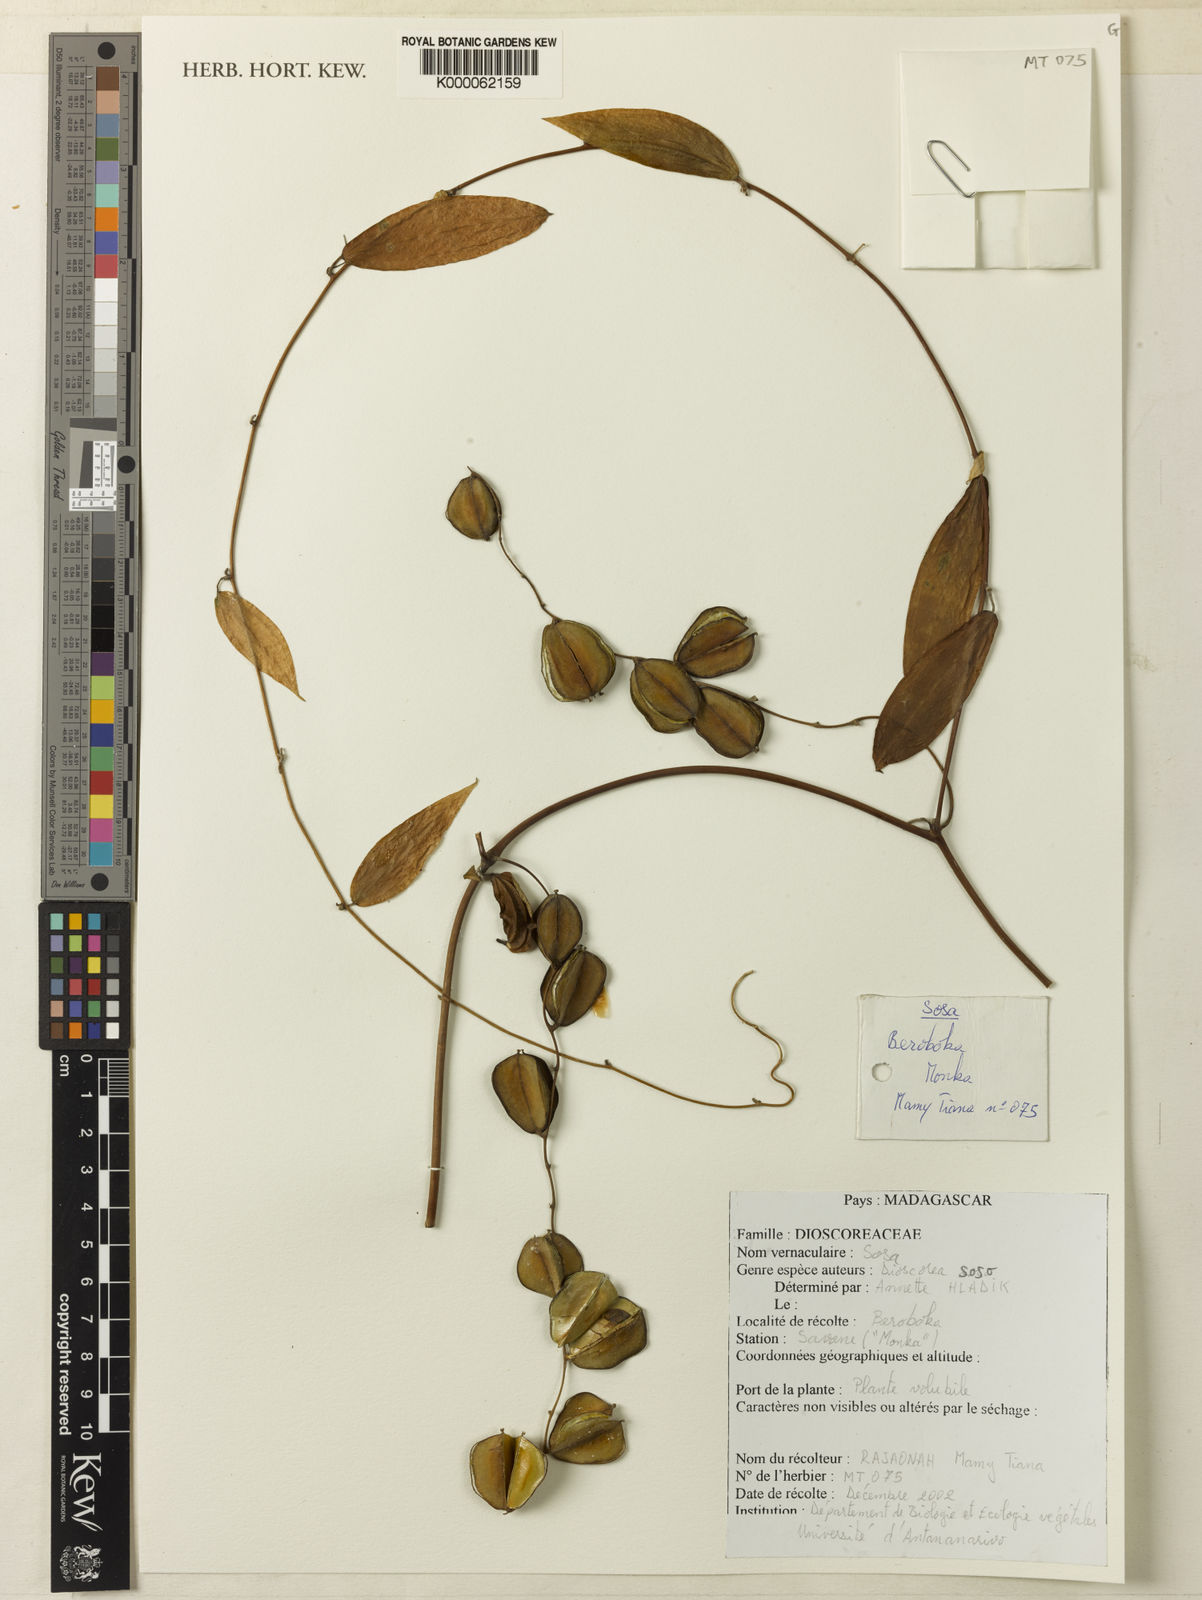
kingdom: Plantae
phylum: Tracheophyta
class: Liliopsida
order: Dioscoreales
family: Dioscoreaceae
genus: Dioscorea
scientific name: Dioscorea soso
